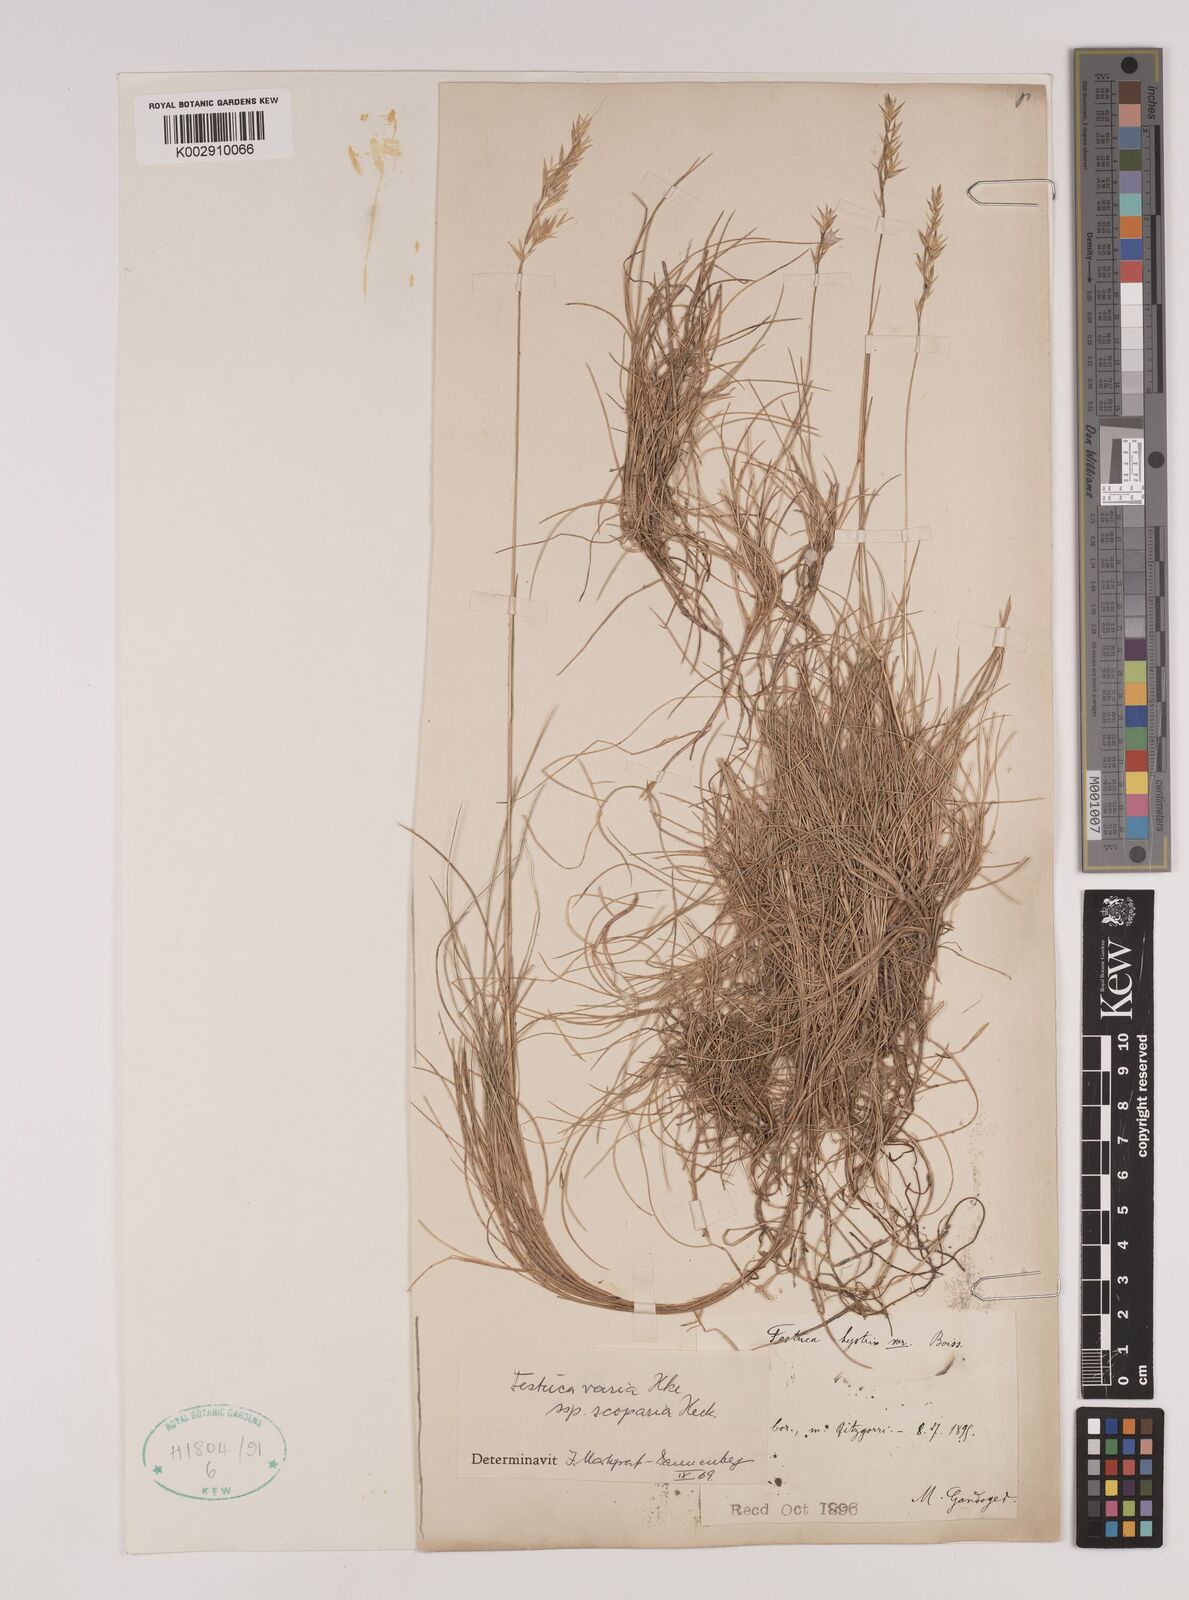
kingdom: Plantae
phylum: Tracheophyta
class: Liliopsida
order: Poales
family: Poaceae
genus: Festuca
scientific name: Festuca gautieri
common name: Spiky fescue
